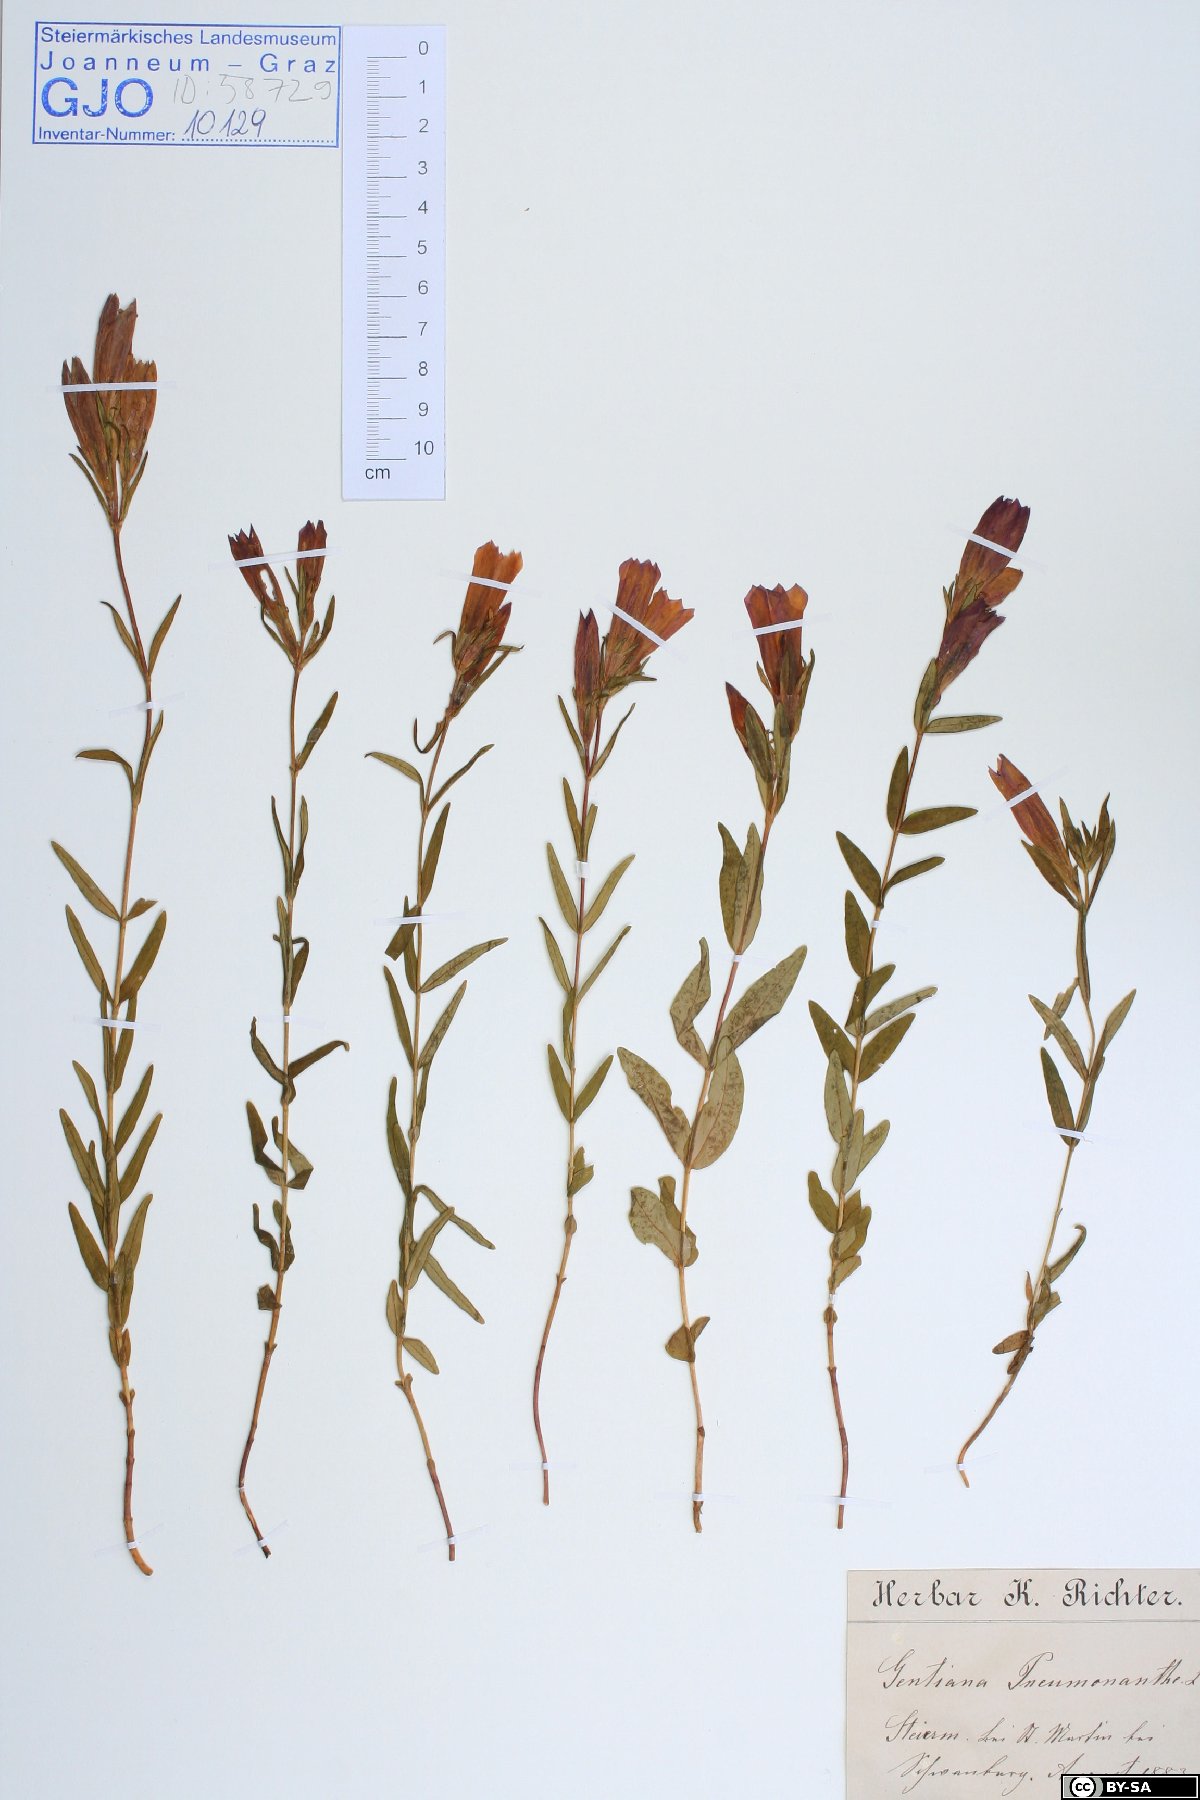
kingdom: Plantae
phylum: Tracheophyta
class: Magnoliopsida
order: Gentianales
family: Gentianaceae
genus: Gentiana
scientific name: Gentiana pneumonanthe
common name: Marsh gentian
